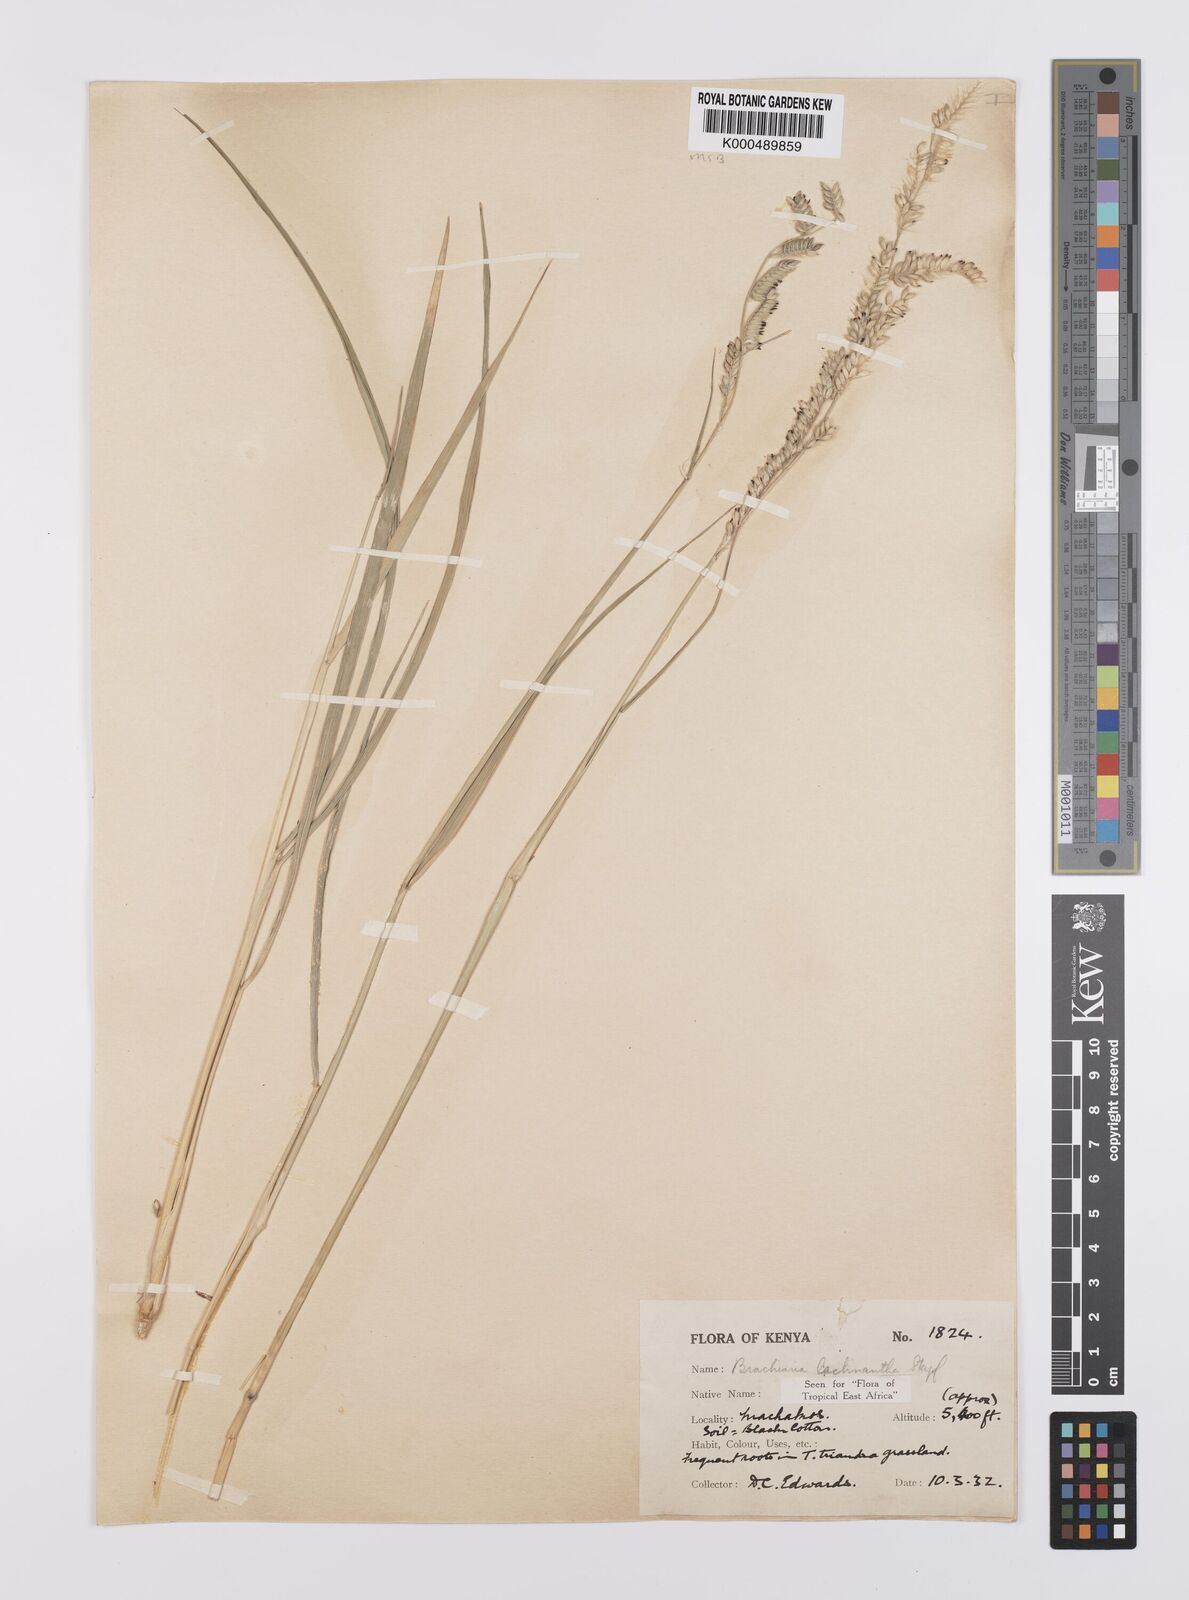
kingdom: Plantae
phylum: Tracheophyta
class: Liliopsida
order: Poales
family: Poaceae
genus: Urochloa
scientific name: Urochloa lachnantha
